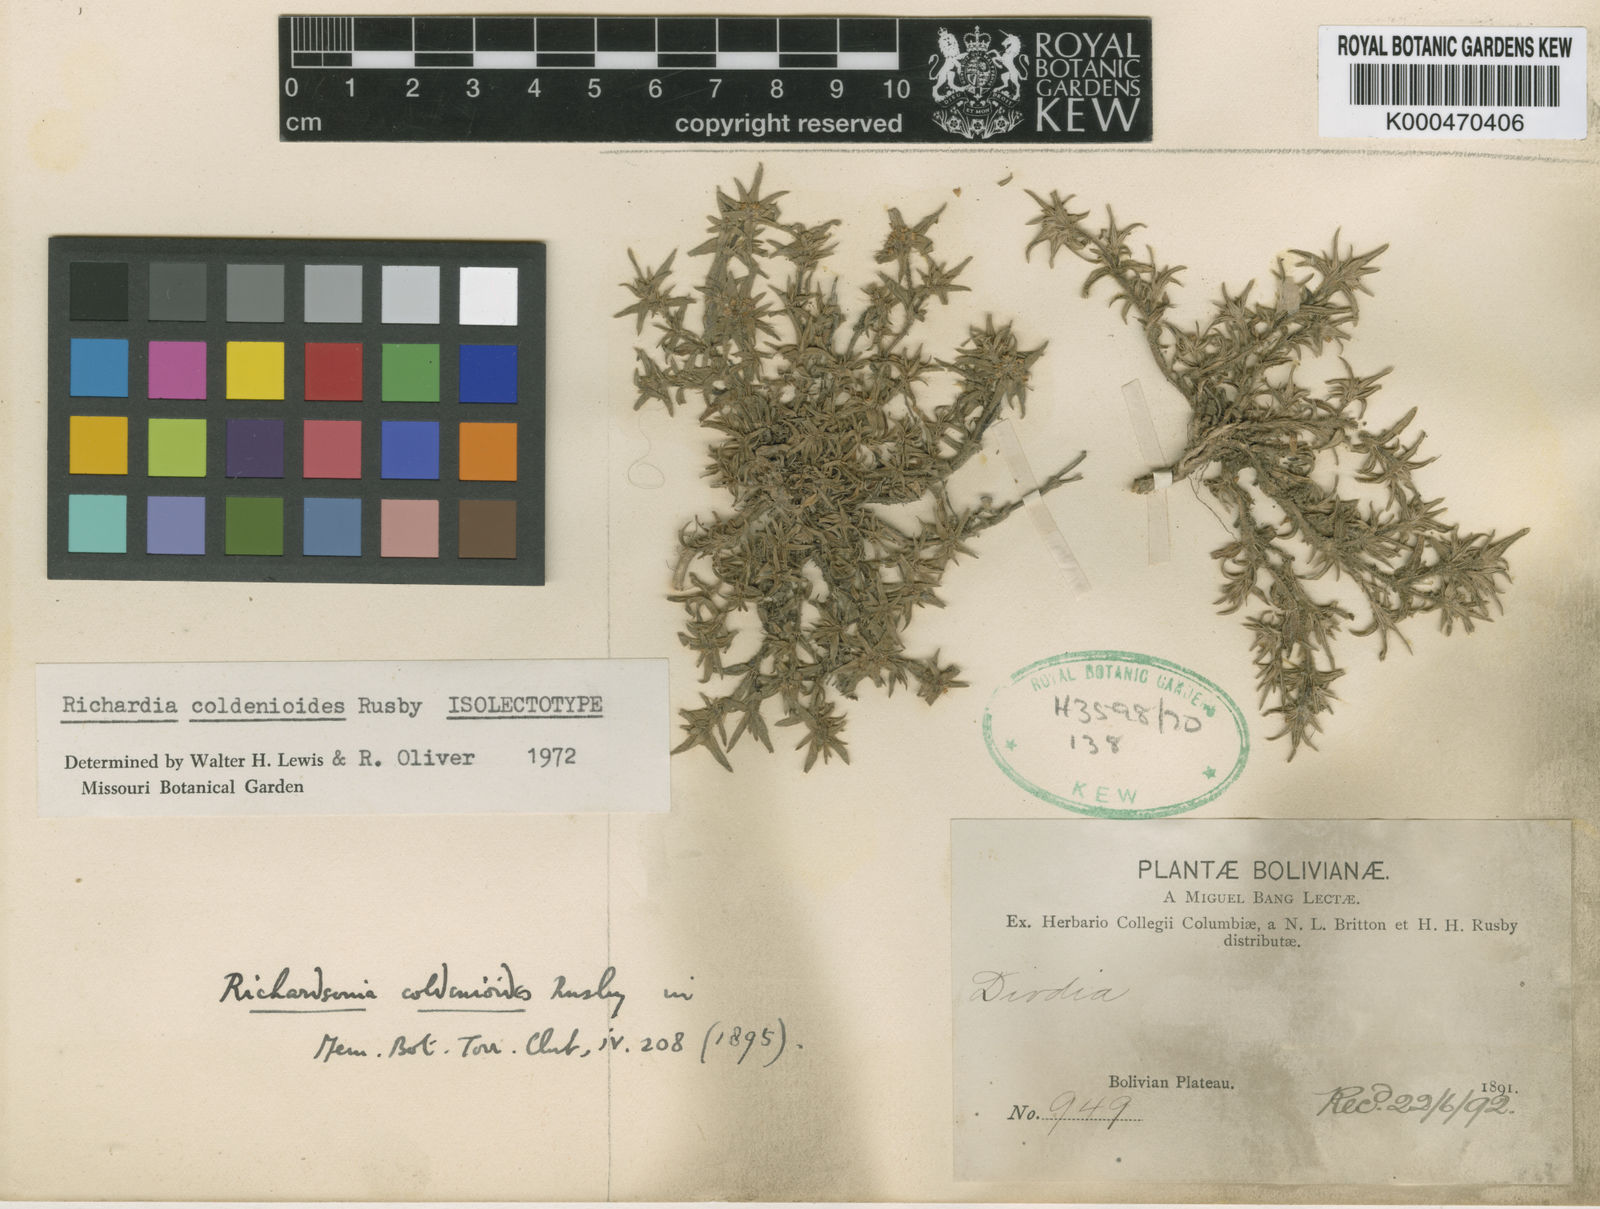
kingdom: Plantae
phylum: Tracheophyta
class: Magnoliopsida
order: Gentianales
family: Rubiaceae
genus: Richardia
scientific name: Richardia coldenioides
